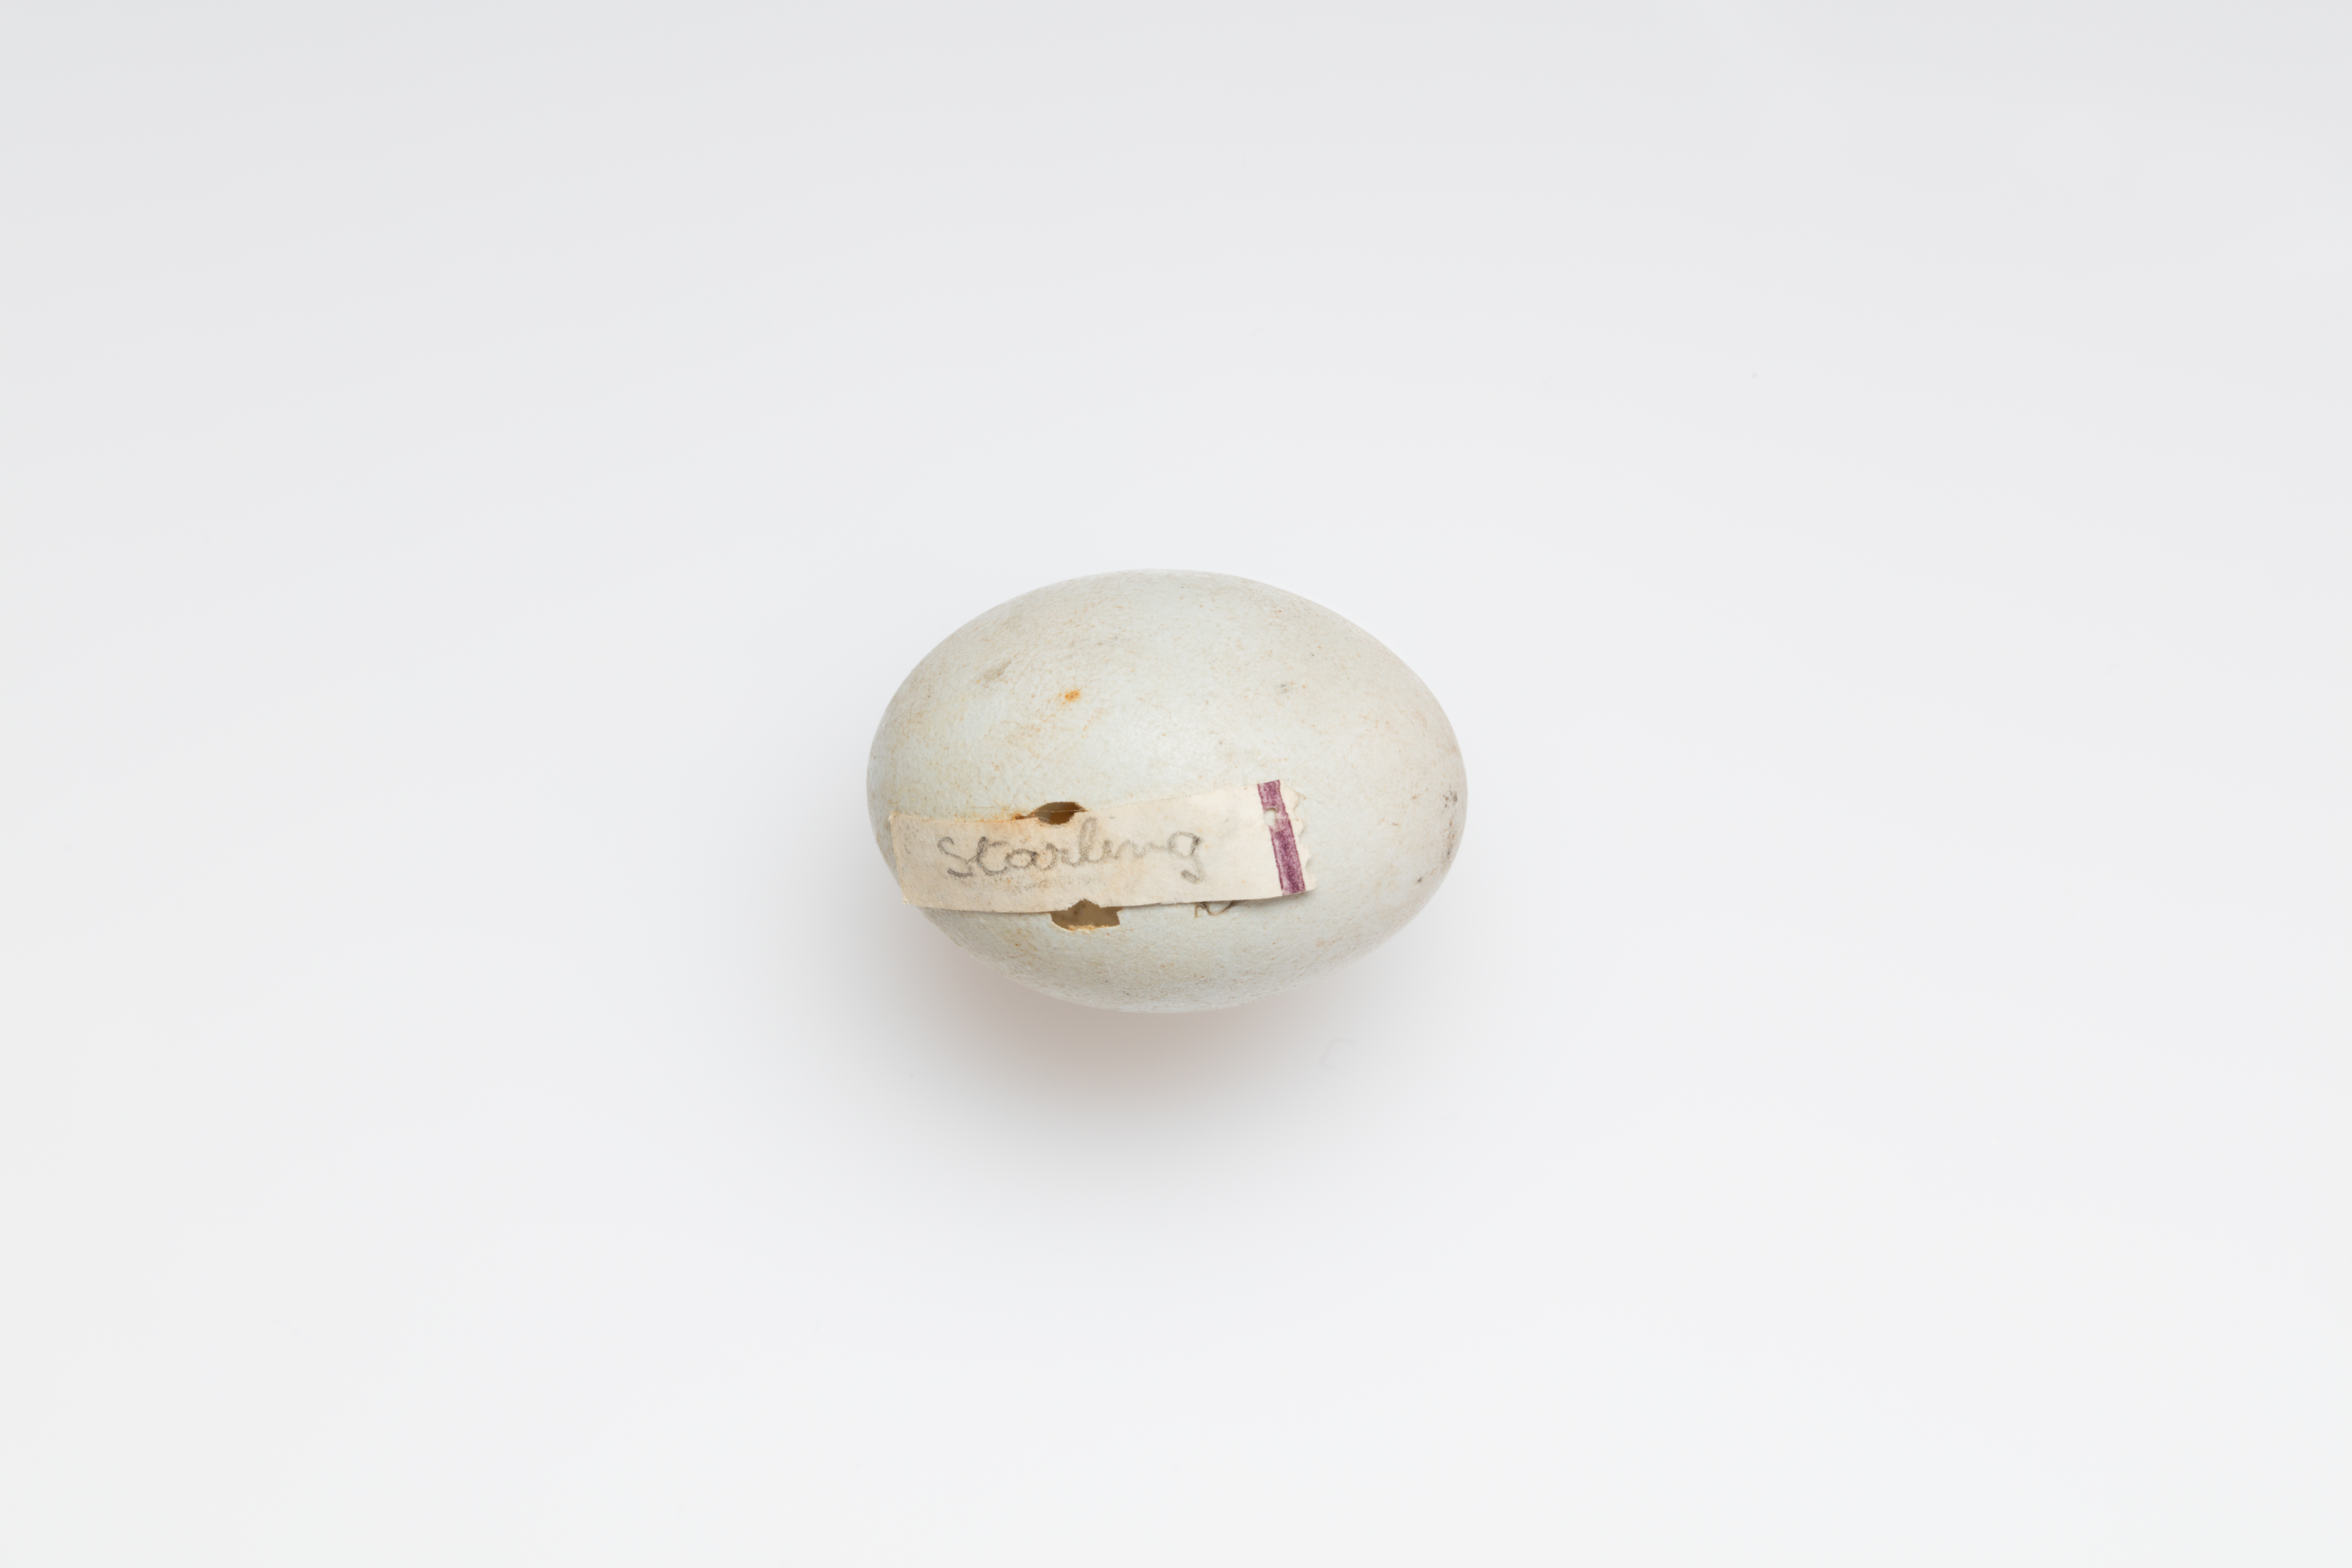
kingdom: Animalia
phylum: Chordata
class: Aves
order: Passeriformes
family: Sturnidae
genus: Sturnus
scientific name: Sturnus vulgaris
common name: Common starling
